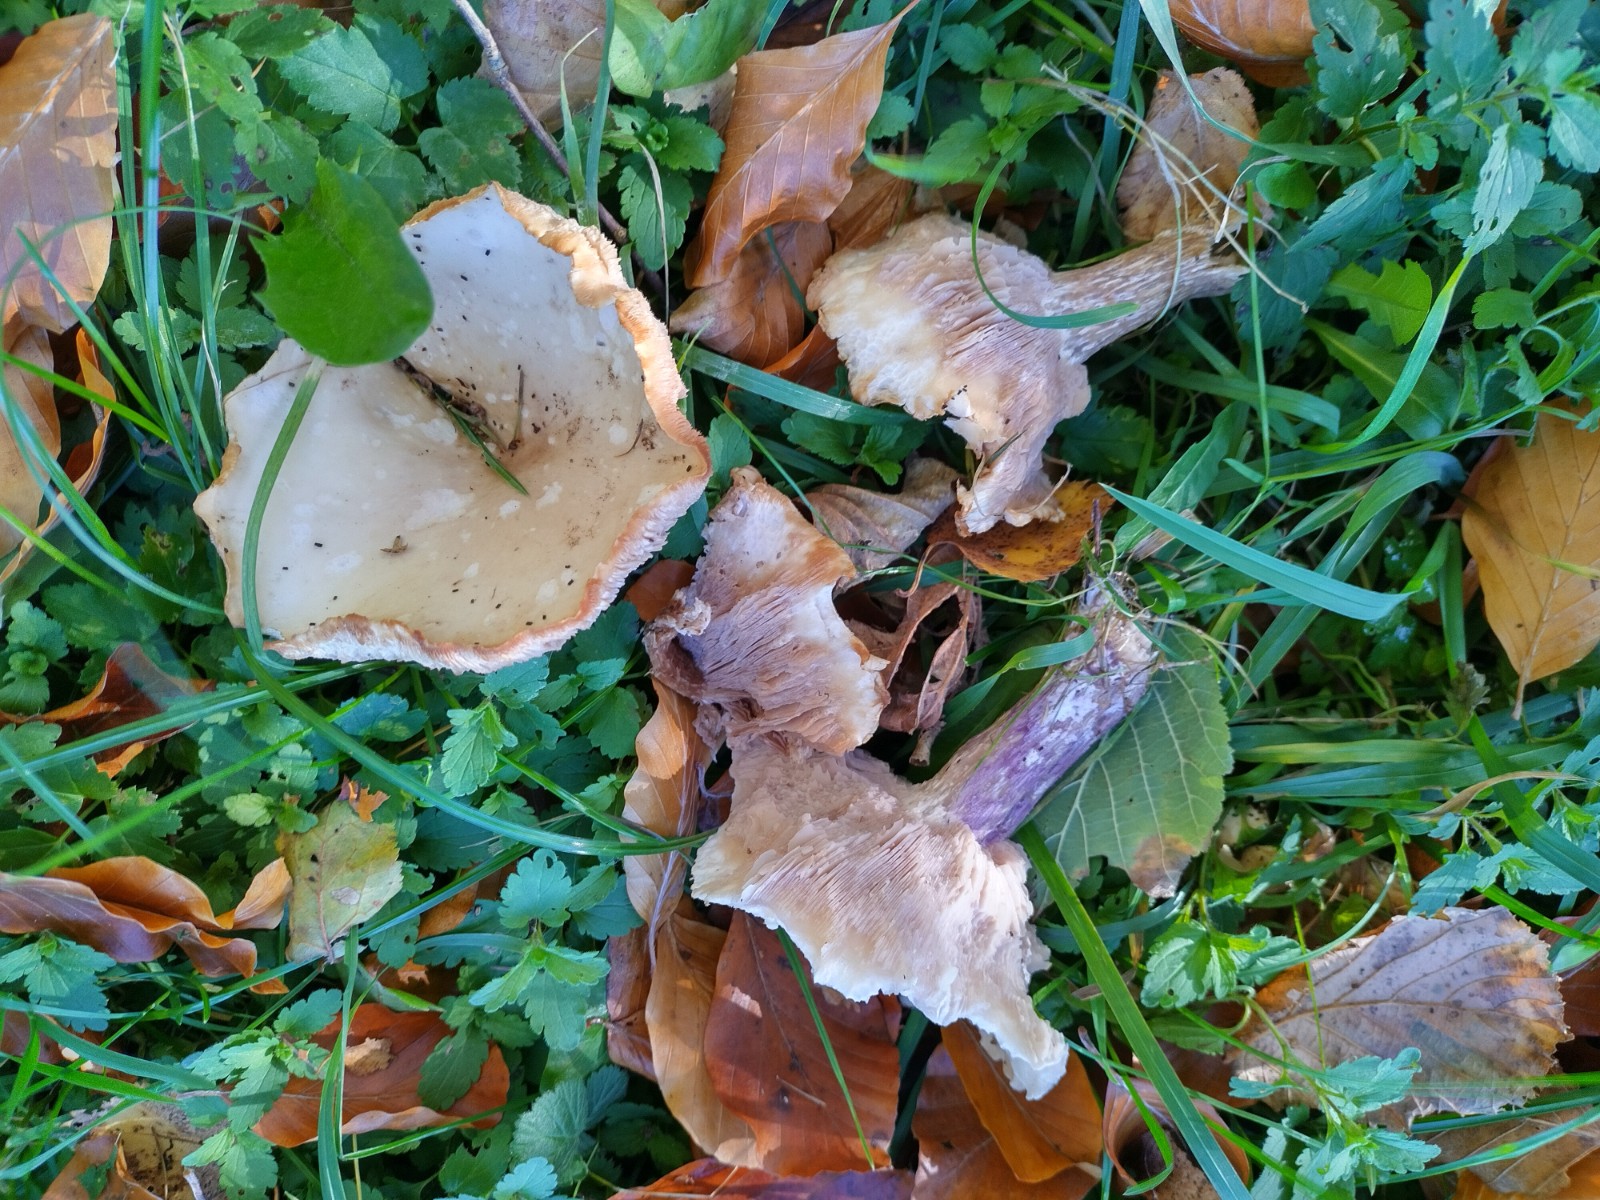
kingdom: Fungi
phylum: Basidiomycota
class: Agaricomycetes
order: Agaricales
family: Tricholomataceae
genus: Lepista
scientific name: Lepista personata
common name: bleg hekseringshat
